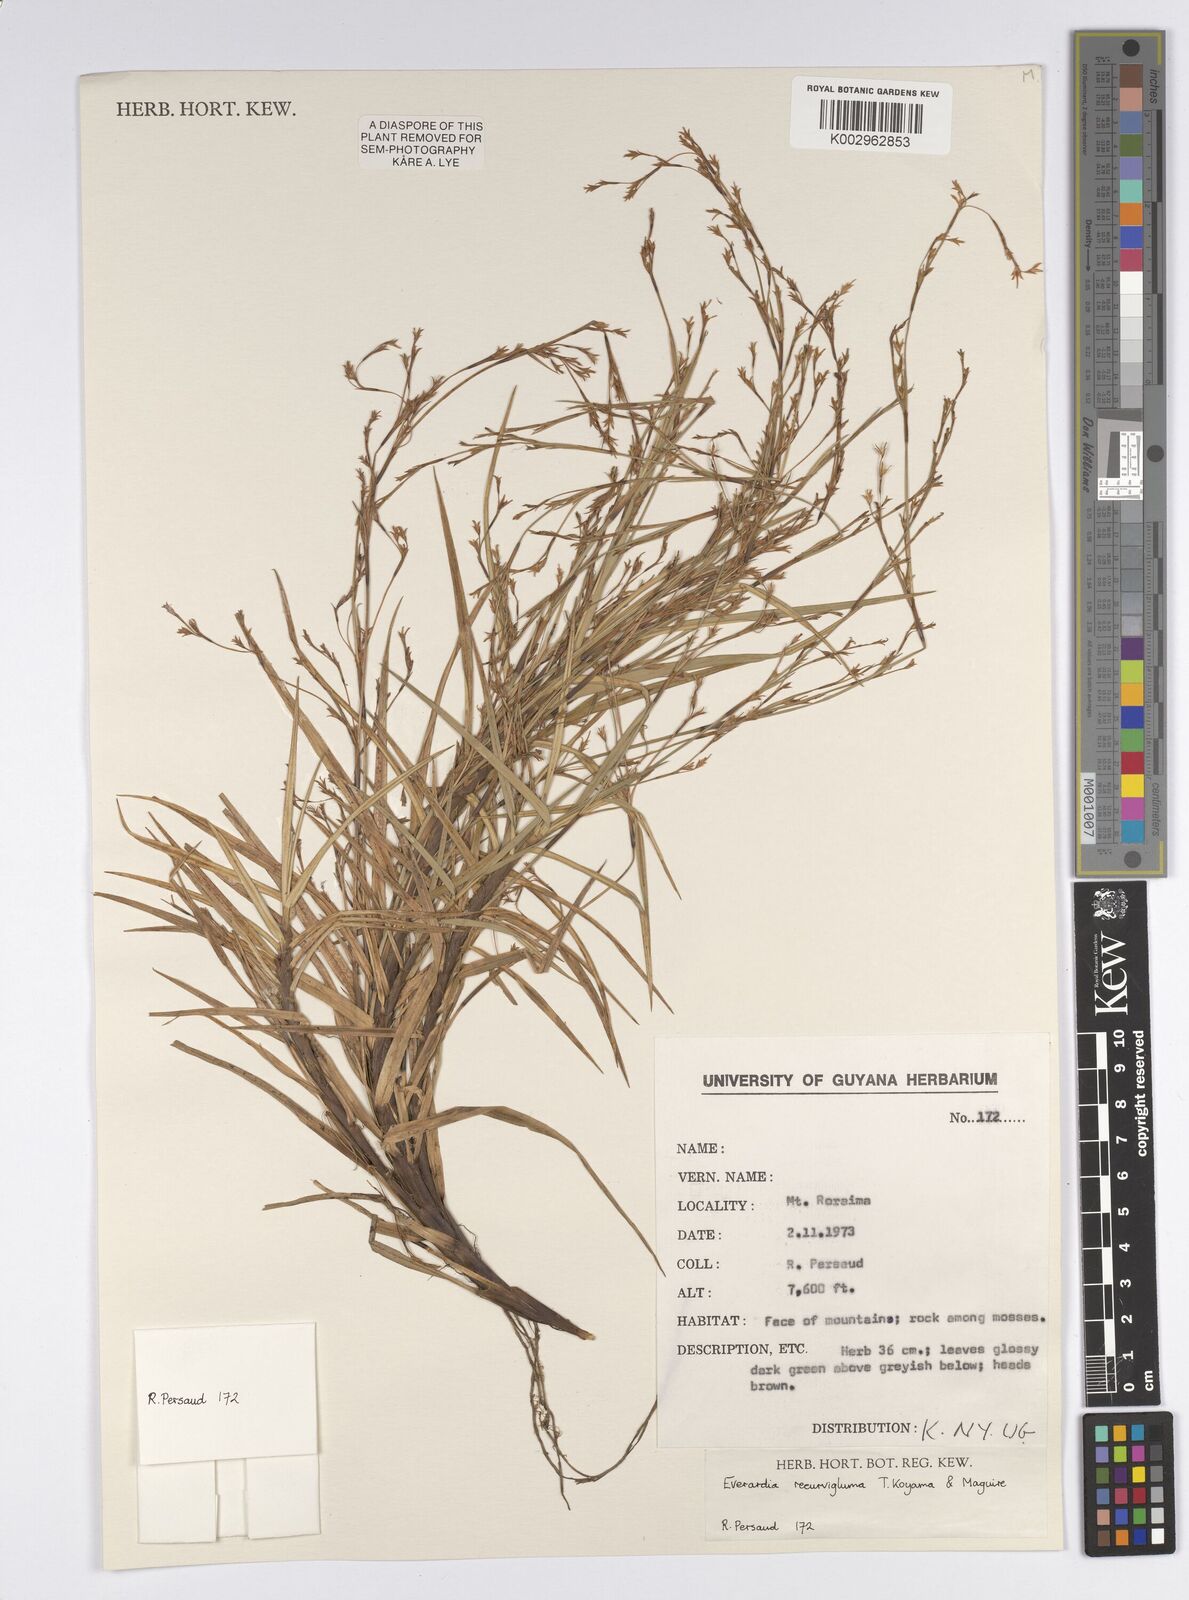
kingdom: Plantae
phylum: Tracheophyta
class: Liliopsida
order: Poales
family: Cyperaceae
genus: Cephalocarpus
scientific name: Cephalocarpus recurviglumis
